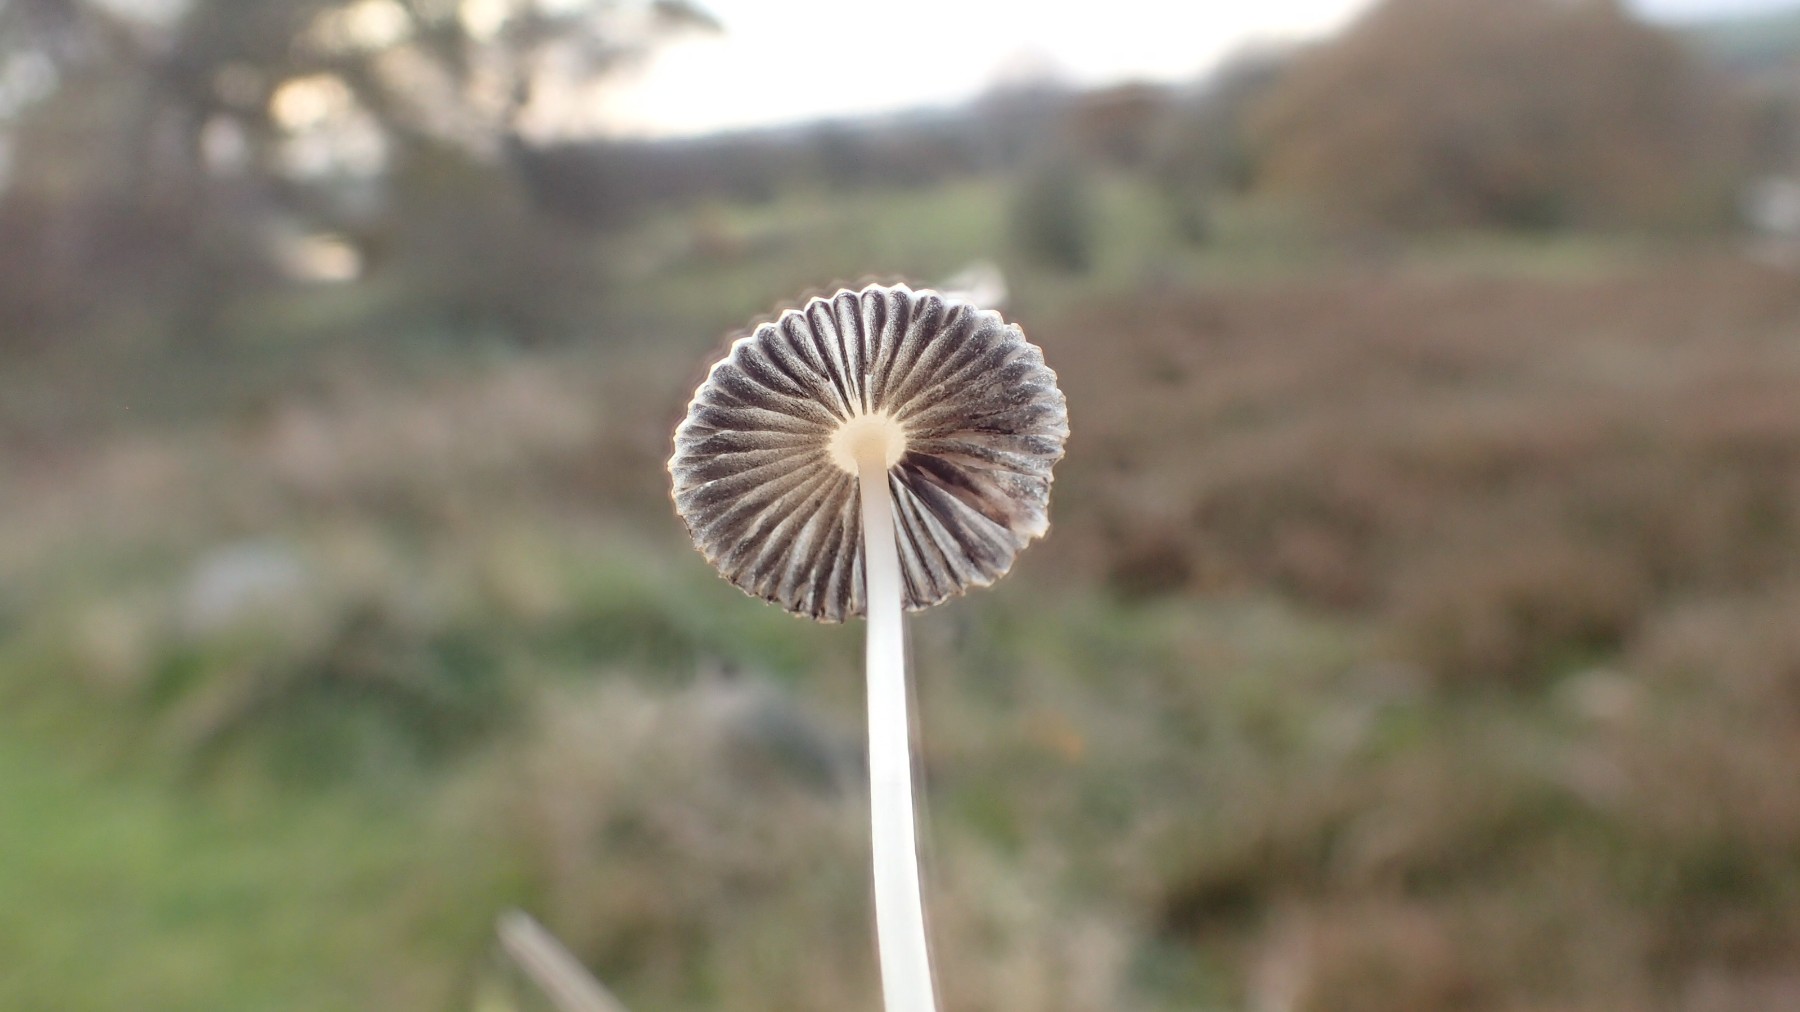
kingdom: Fungi
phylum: Basidiomycota
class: Agaricomycetes
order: Agaricales
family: Psathyrellaceae
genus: Parasola
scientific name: Parasola plicatilis
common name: plæne-hjulhat
